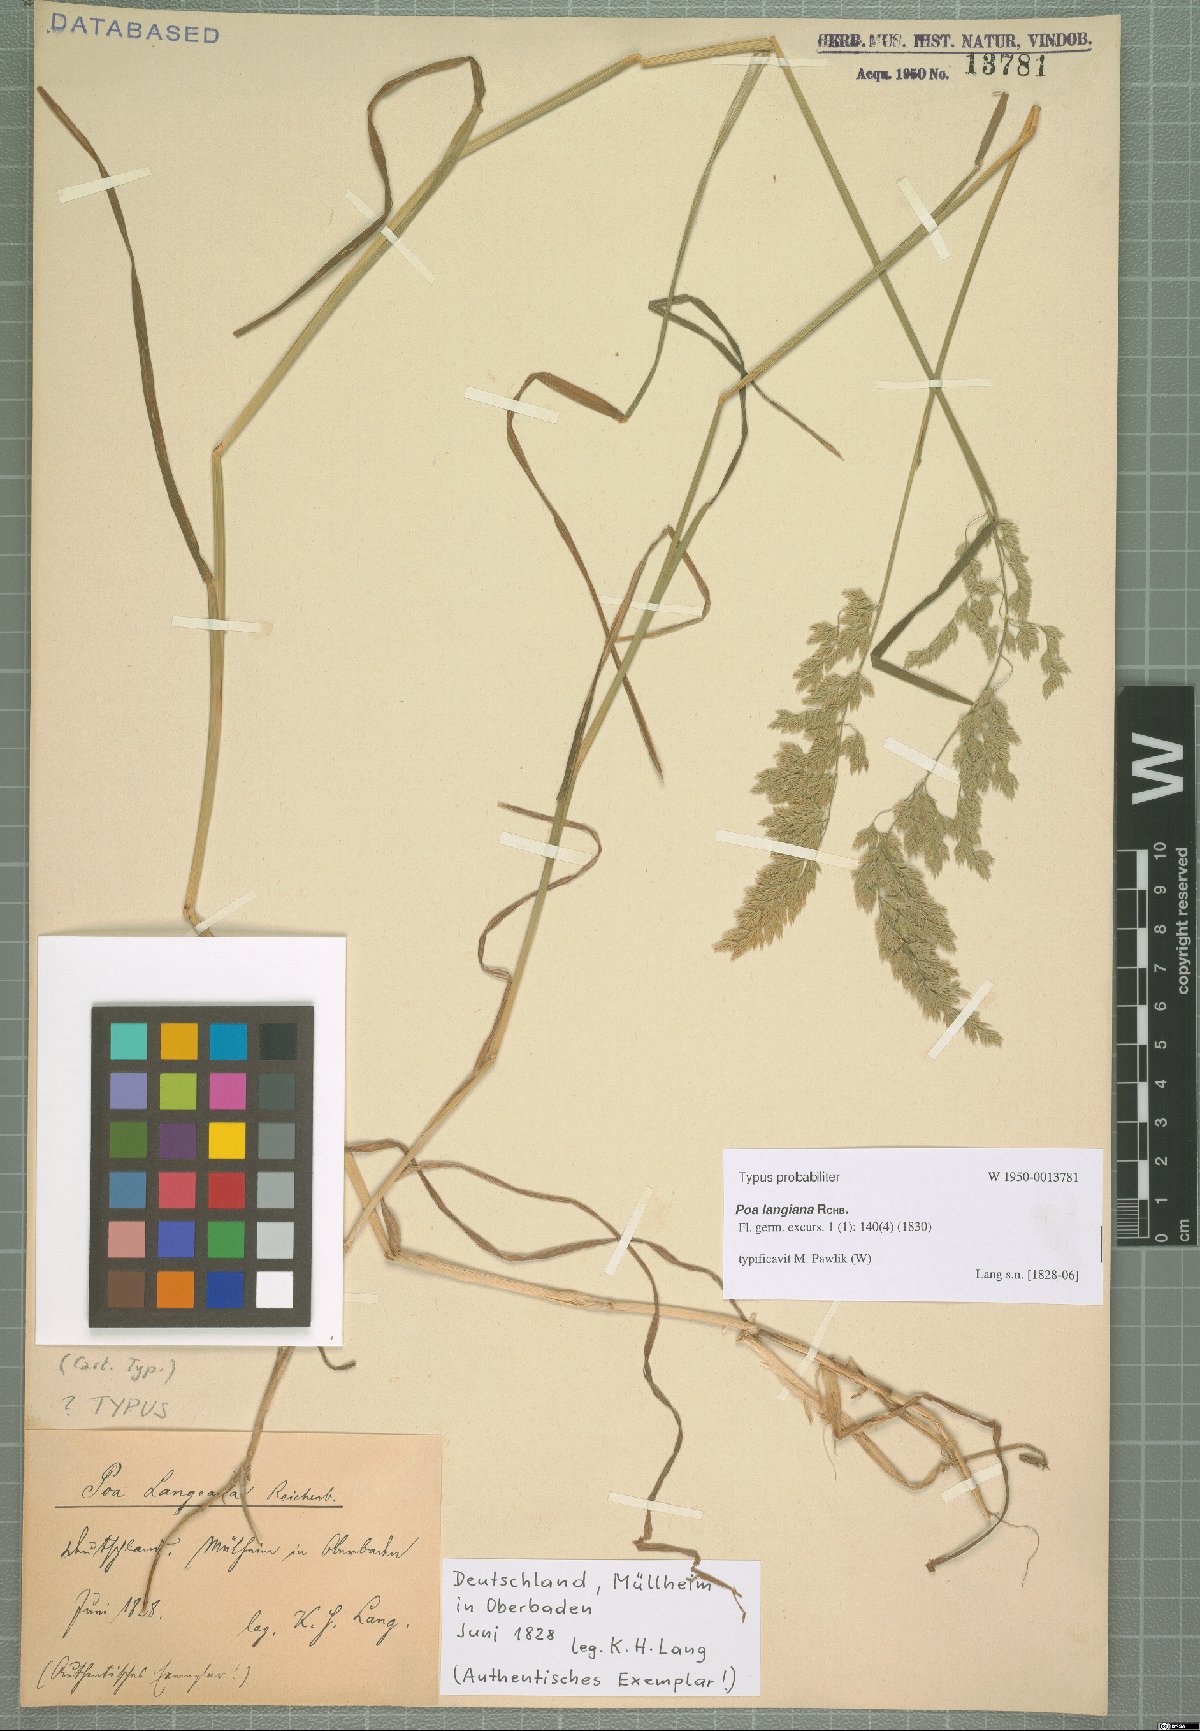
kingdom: Plantae
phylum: Tracheophyta
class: Liliopsida
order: Poales
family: Poaceae
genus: Poa
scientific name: Poa compressa
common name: Canada bluegrass
